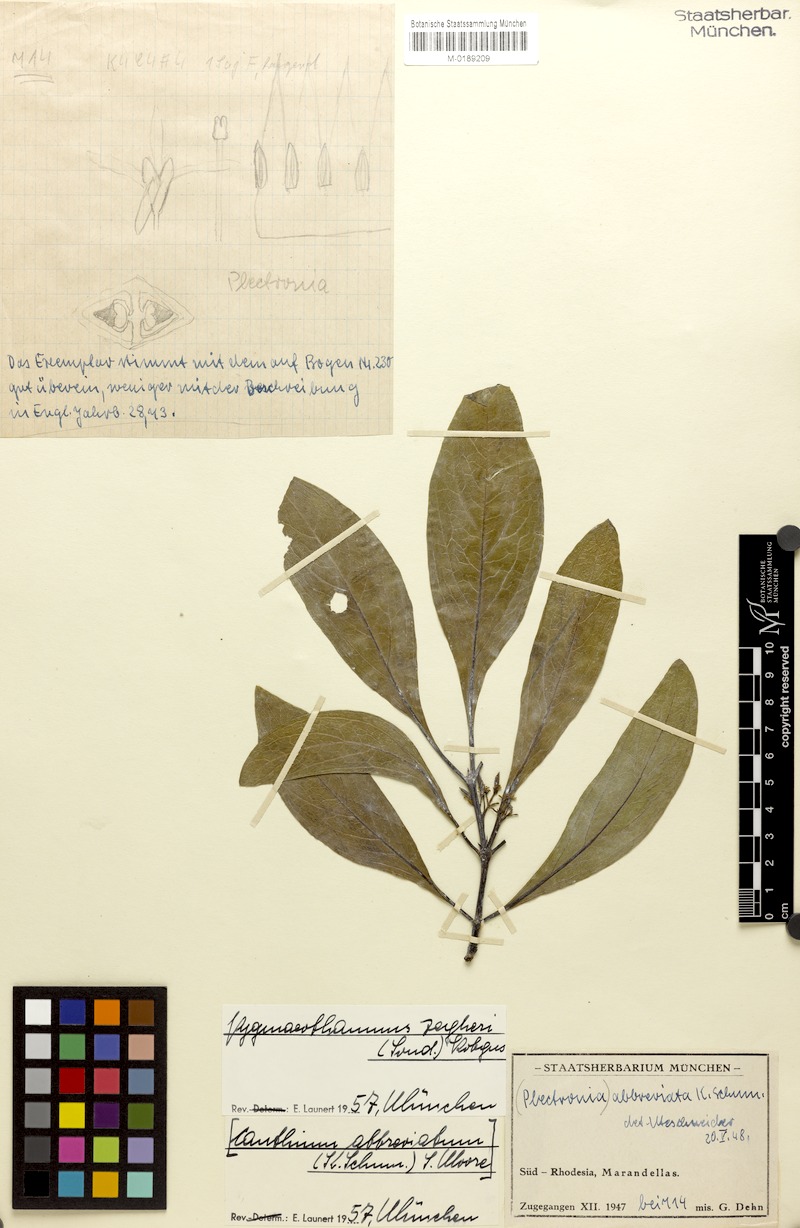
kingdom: Plantae
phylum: Tracheophyta
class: Magnoliopsida
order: Gentianales
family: Rubiaceae
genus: Pygmaeothamnus
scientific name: Pygmaeothamnus zeyheri
